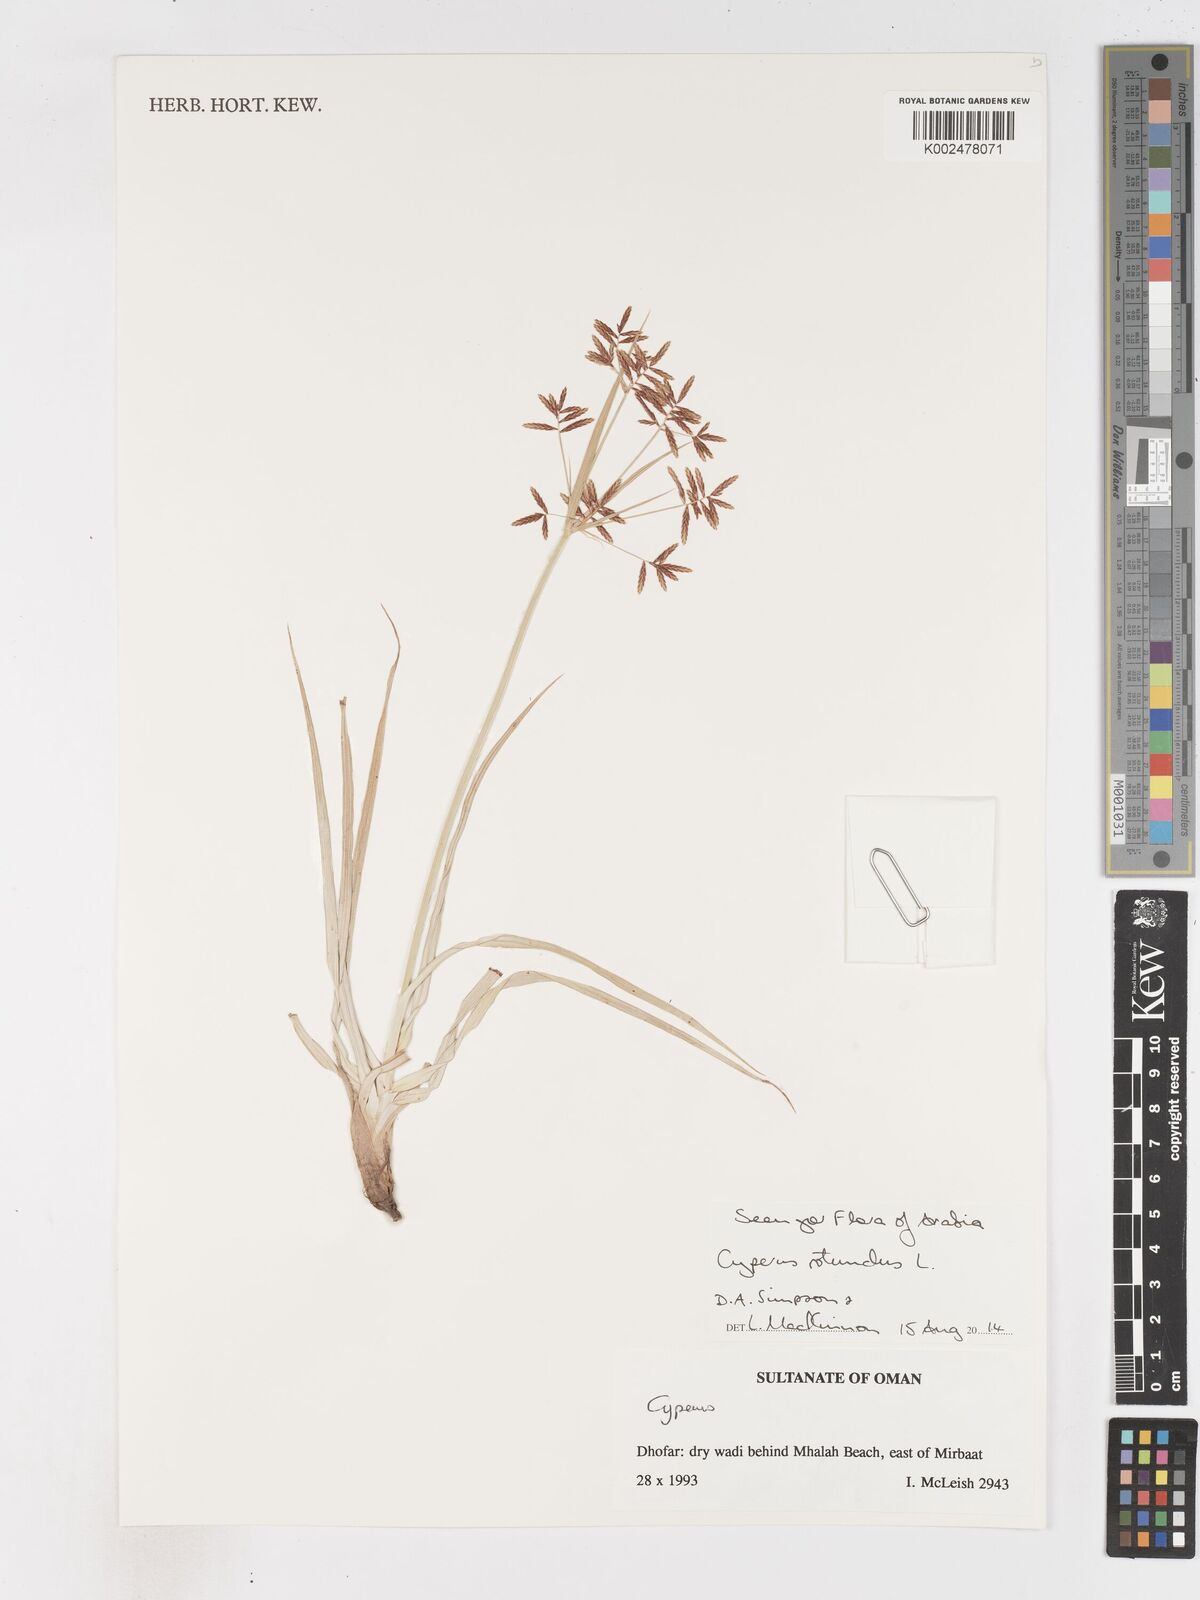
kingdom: Plantae
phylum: Tracheophyta
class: Liliopsida
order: Poales
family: Cyperaceae
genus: Cyperus
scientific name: Cyperus rotundus
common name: Nutgrass
